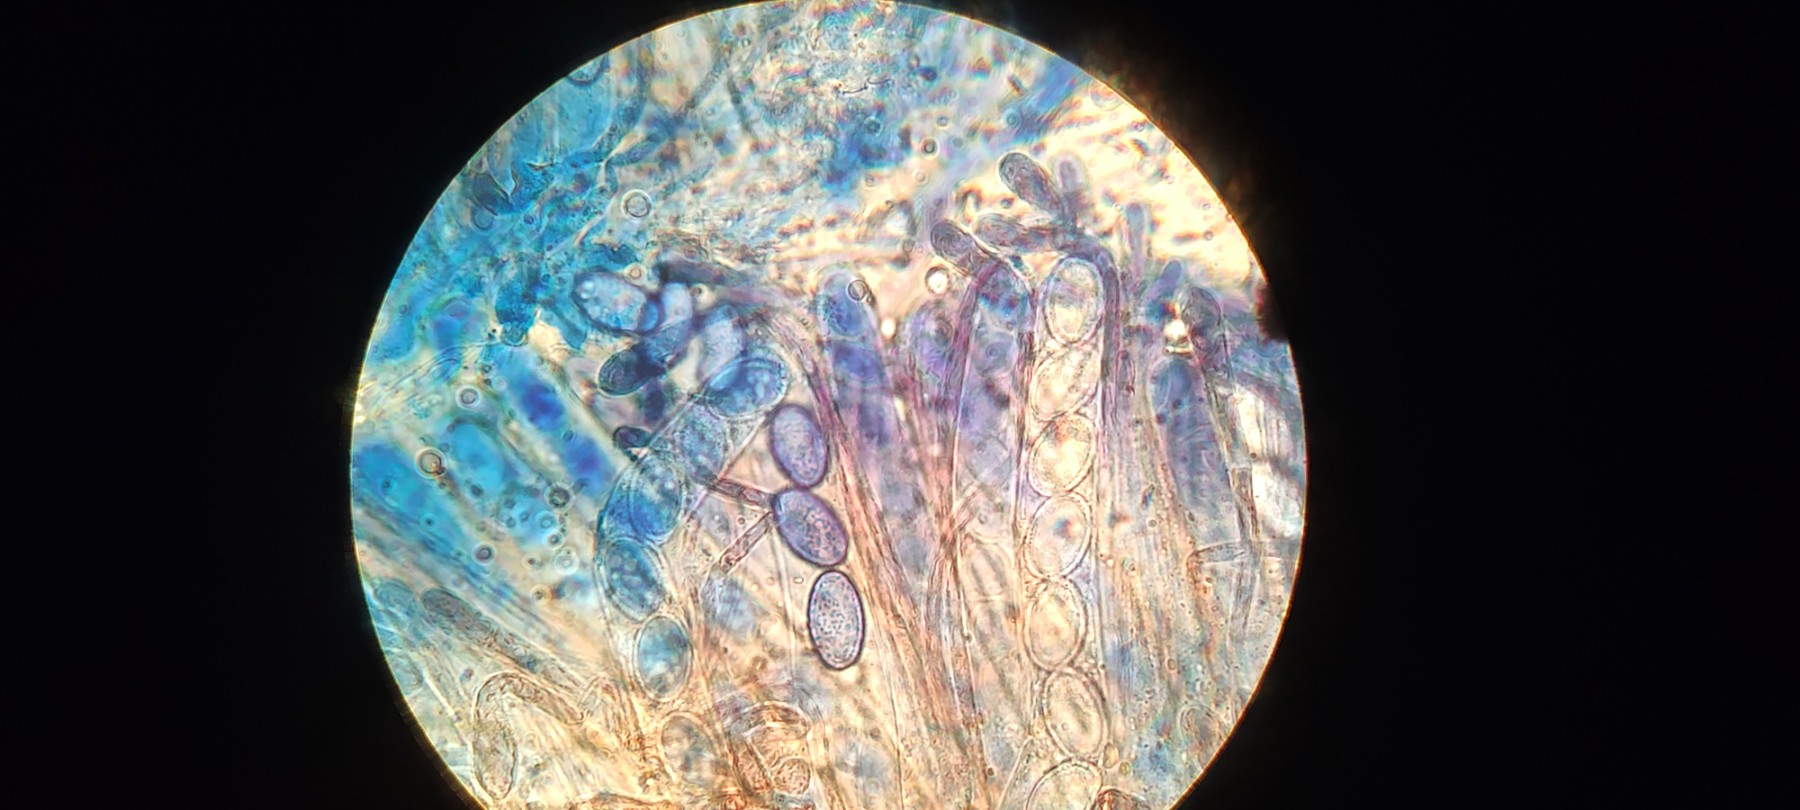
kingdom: Fungi
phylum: Ascomycota
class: Pezizomycetes
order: Pezizales
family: Pyronemataceae
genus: Scutellinia
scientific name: Scutellinia scutellata
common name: frynset skjoldbæger
